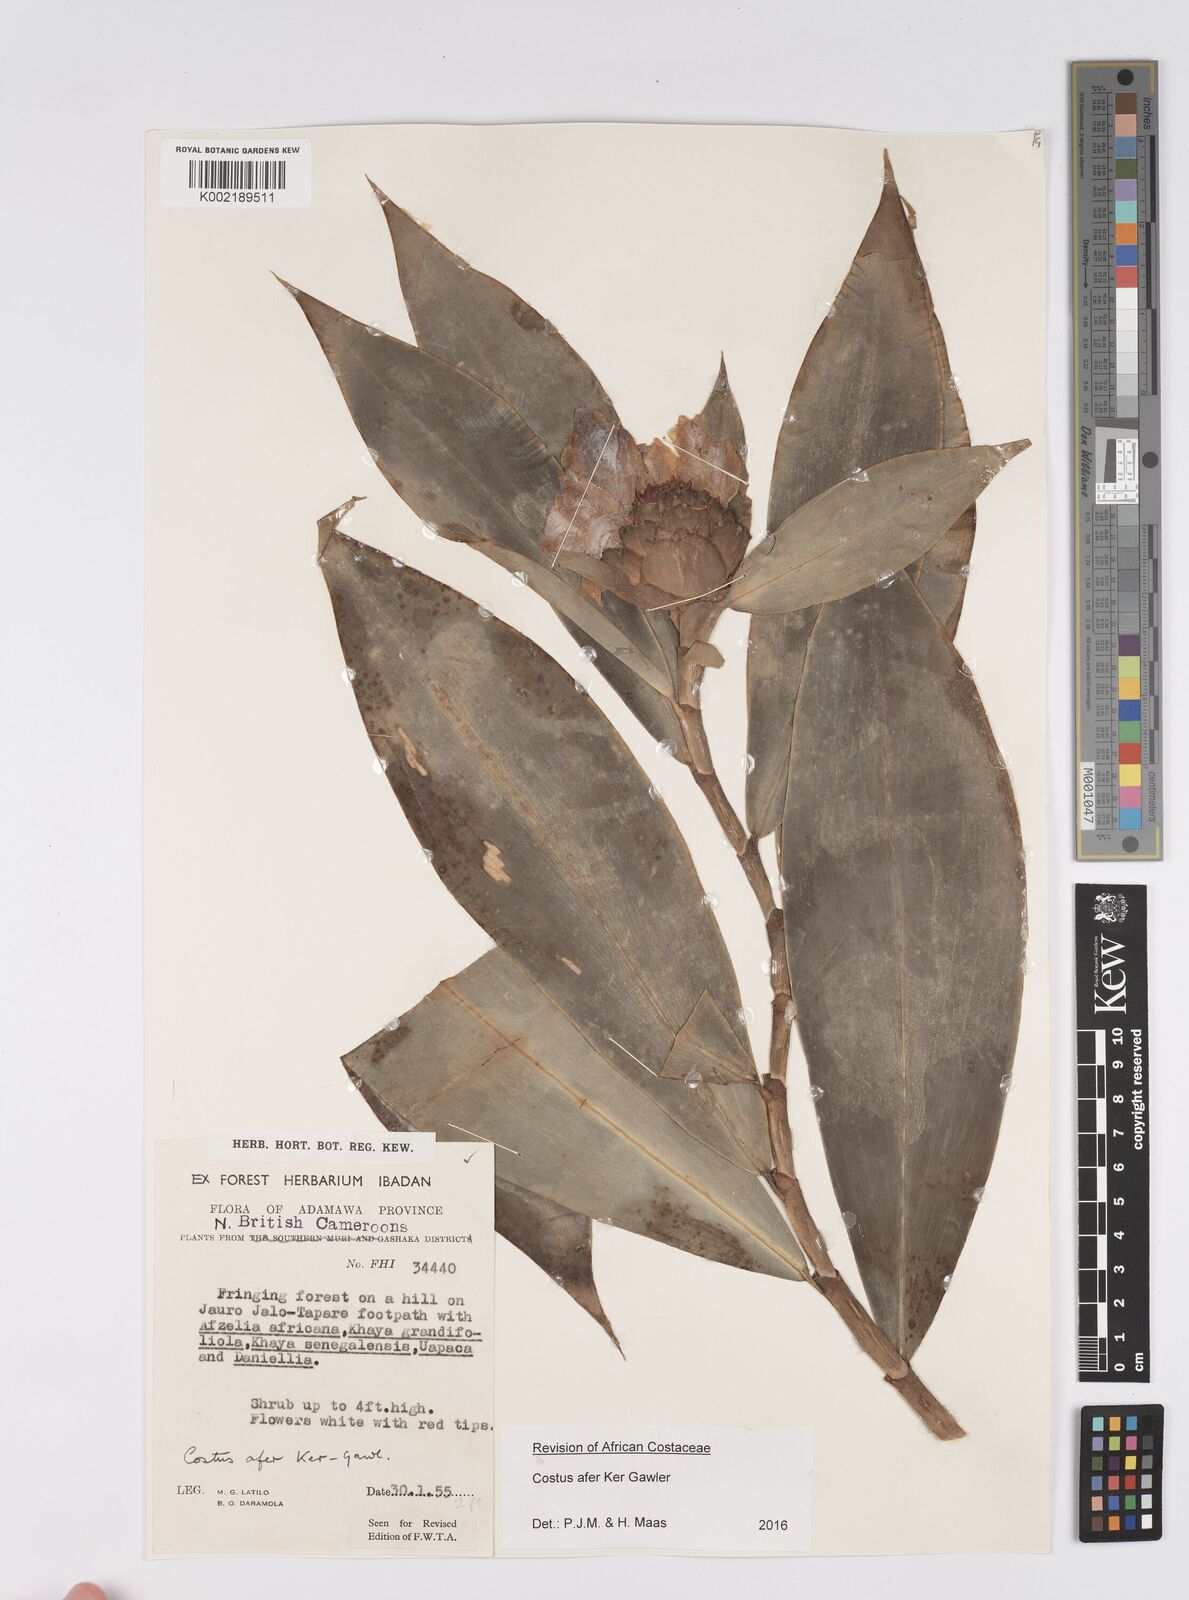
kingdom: Plantae
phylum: Tracheophyta
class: Liliopsida
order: Zingiberales
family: Costaceae
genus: Costus
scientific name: Costus afer
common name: Spiral-ginger
